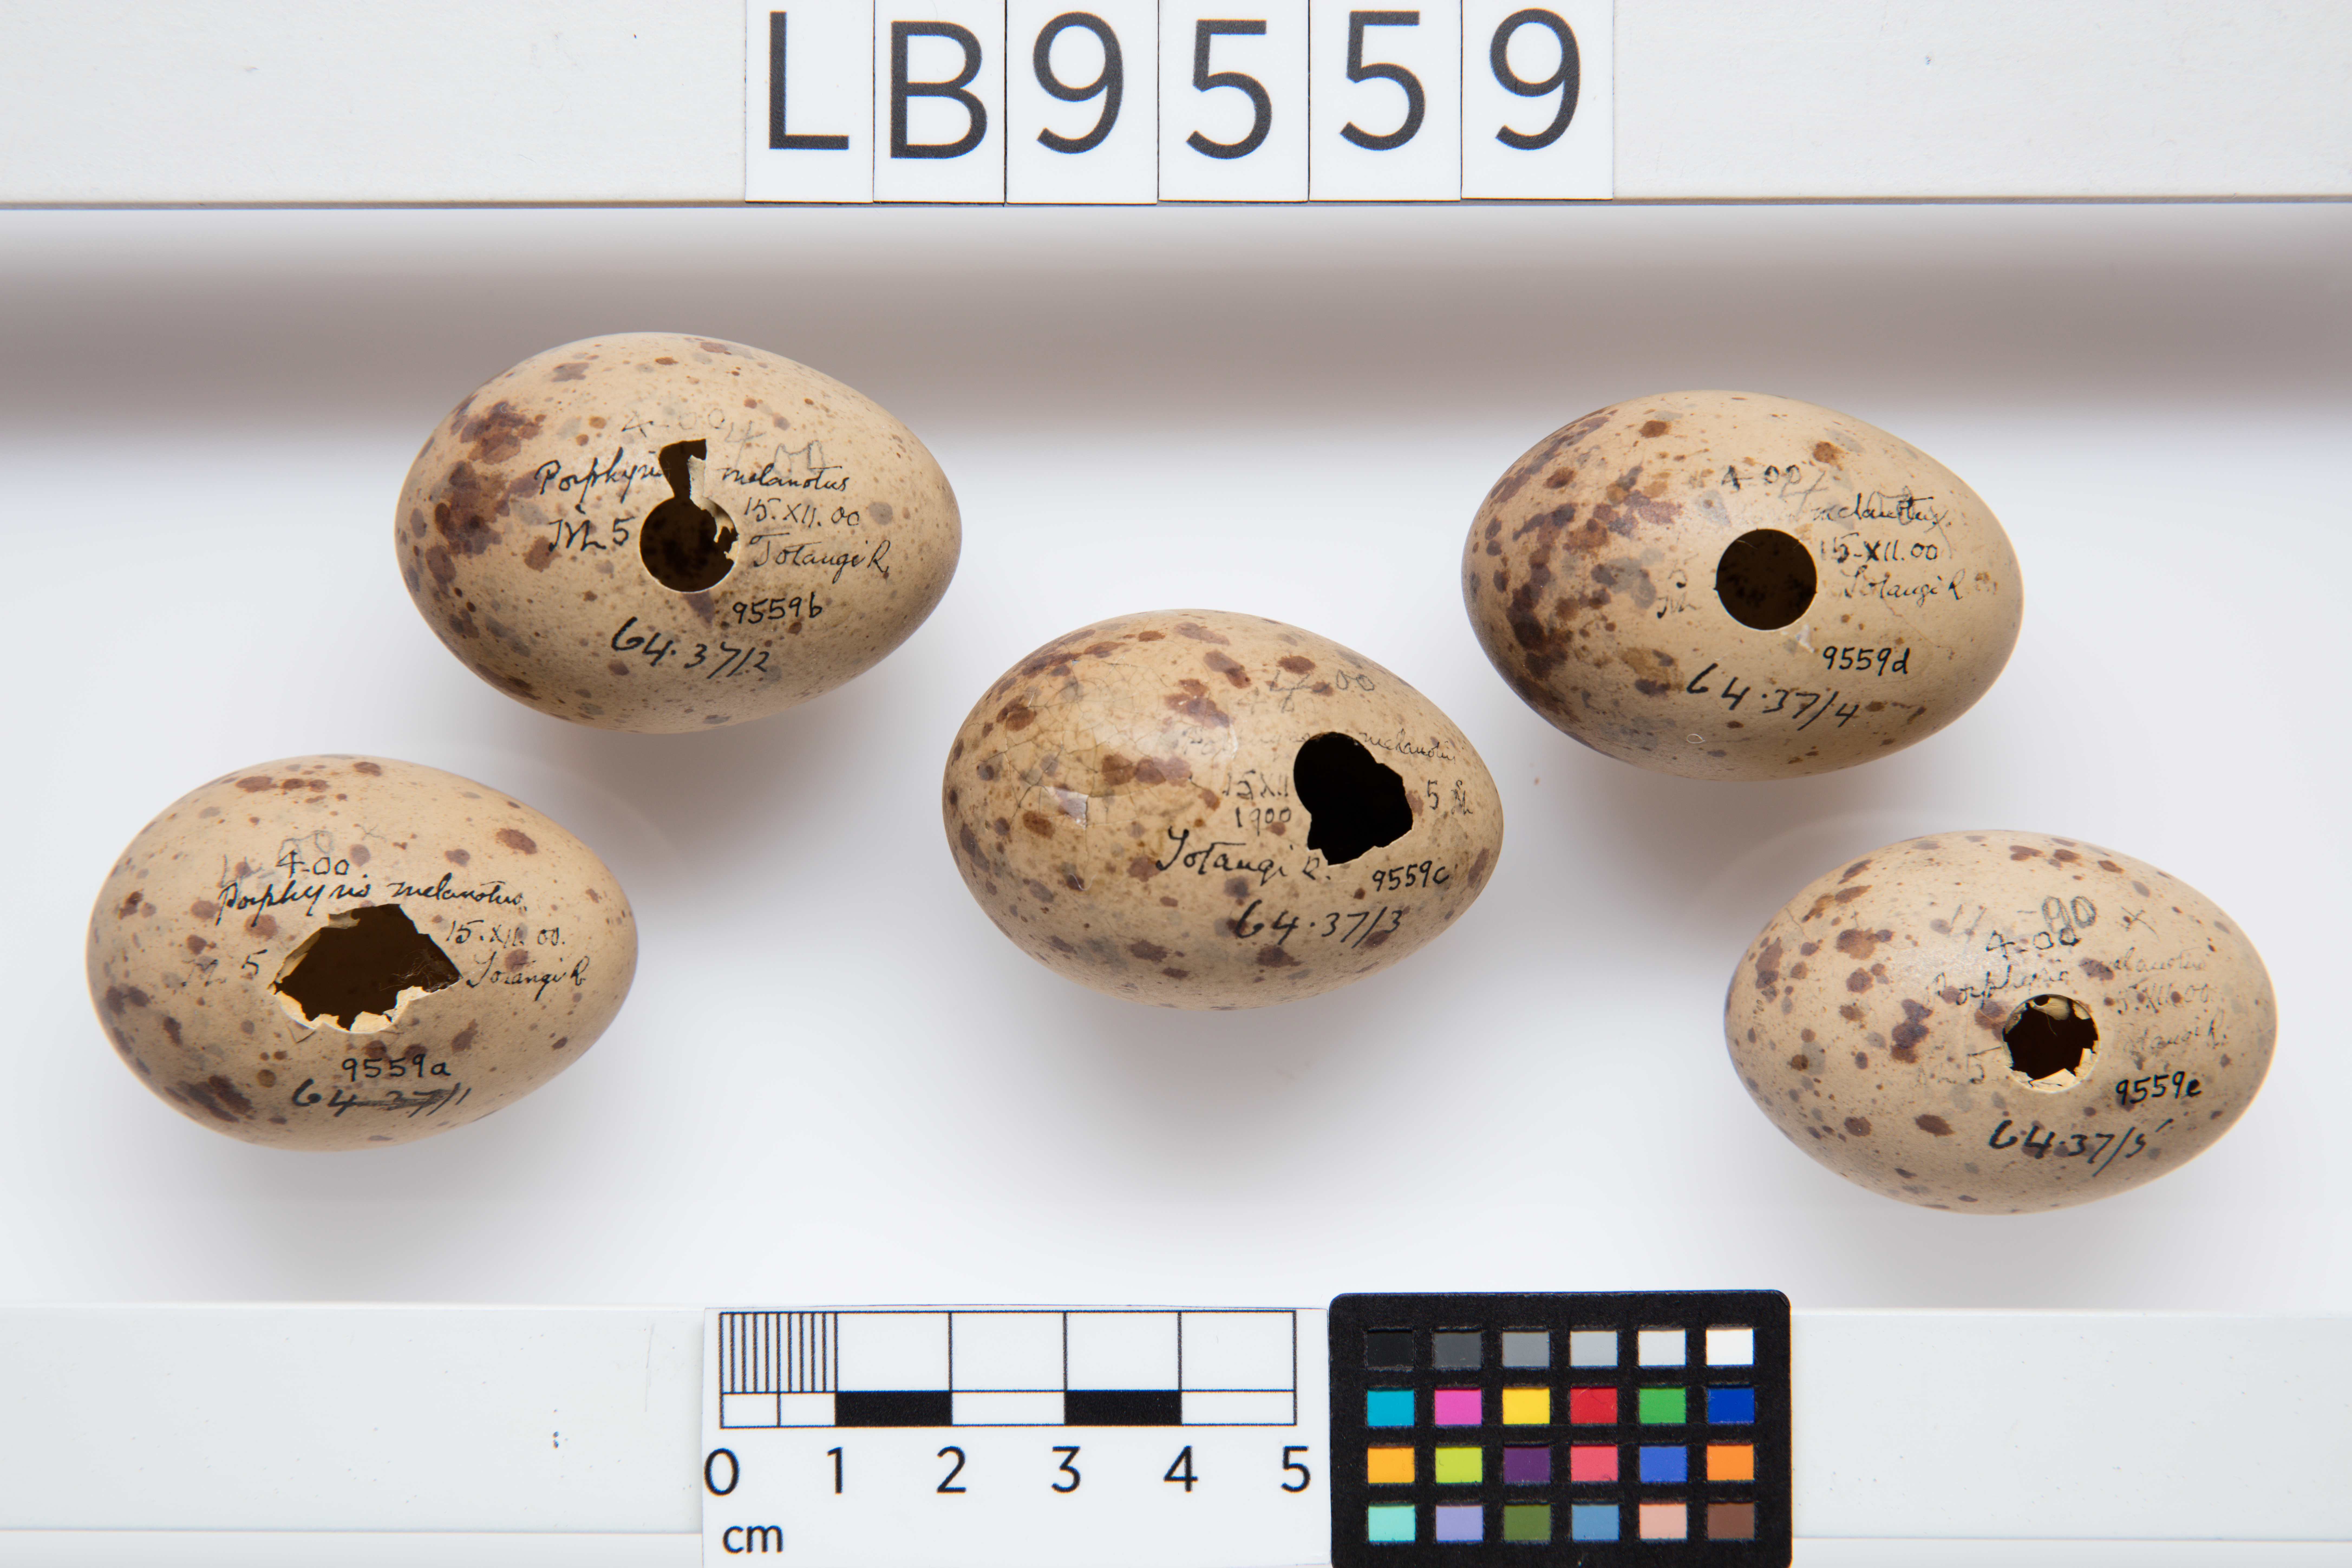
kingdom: Animalia
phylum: Chordata
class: Aves
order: Gruiformes
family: Rallidae
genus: Porphyrio
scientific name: Porphyrio melanotus
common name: Australasian swamphen
